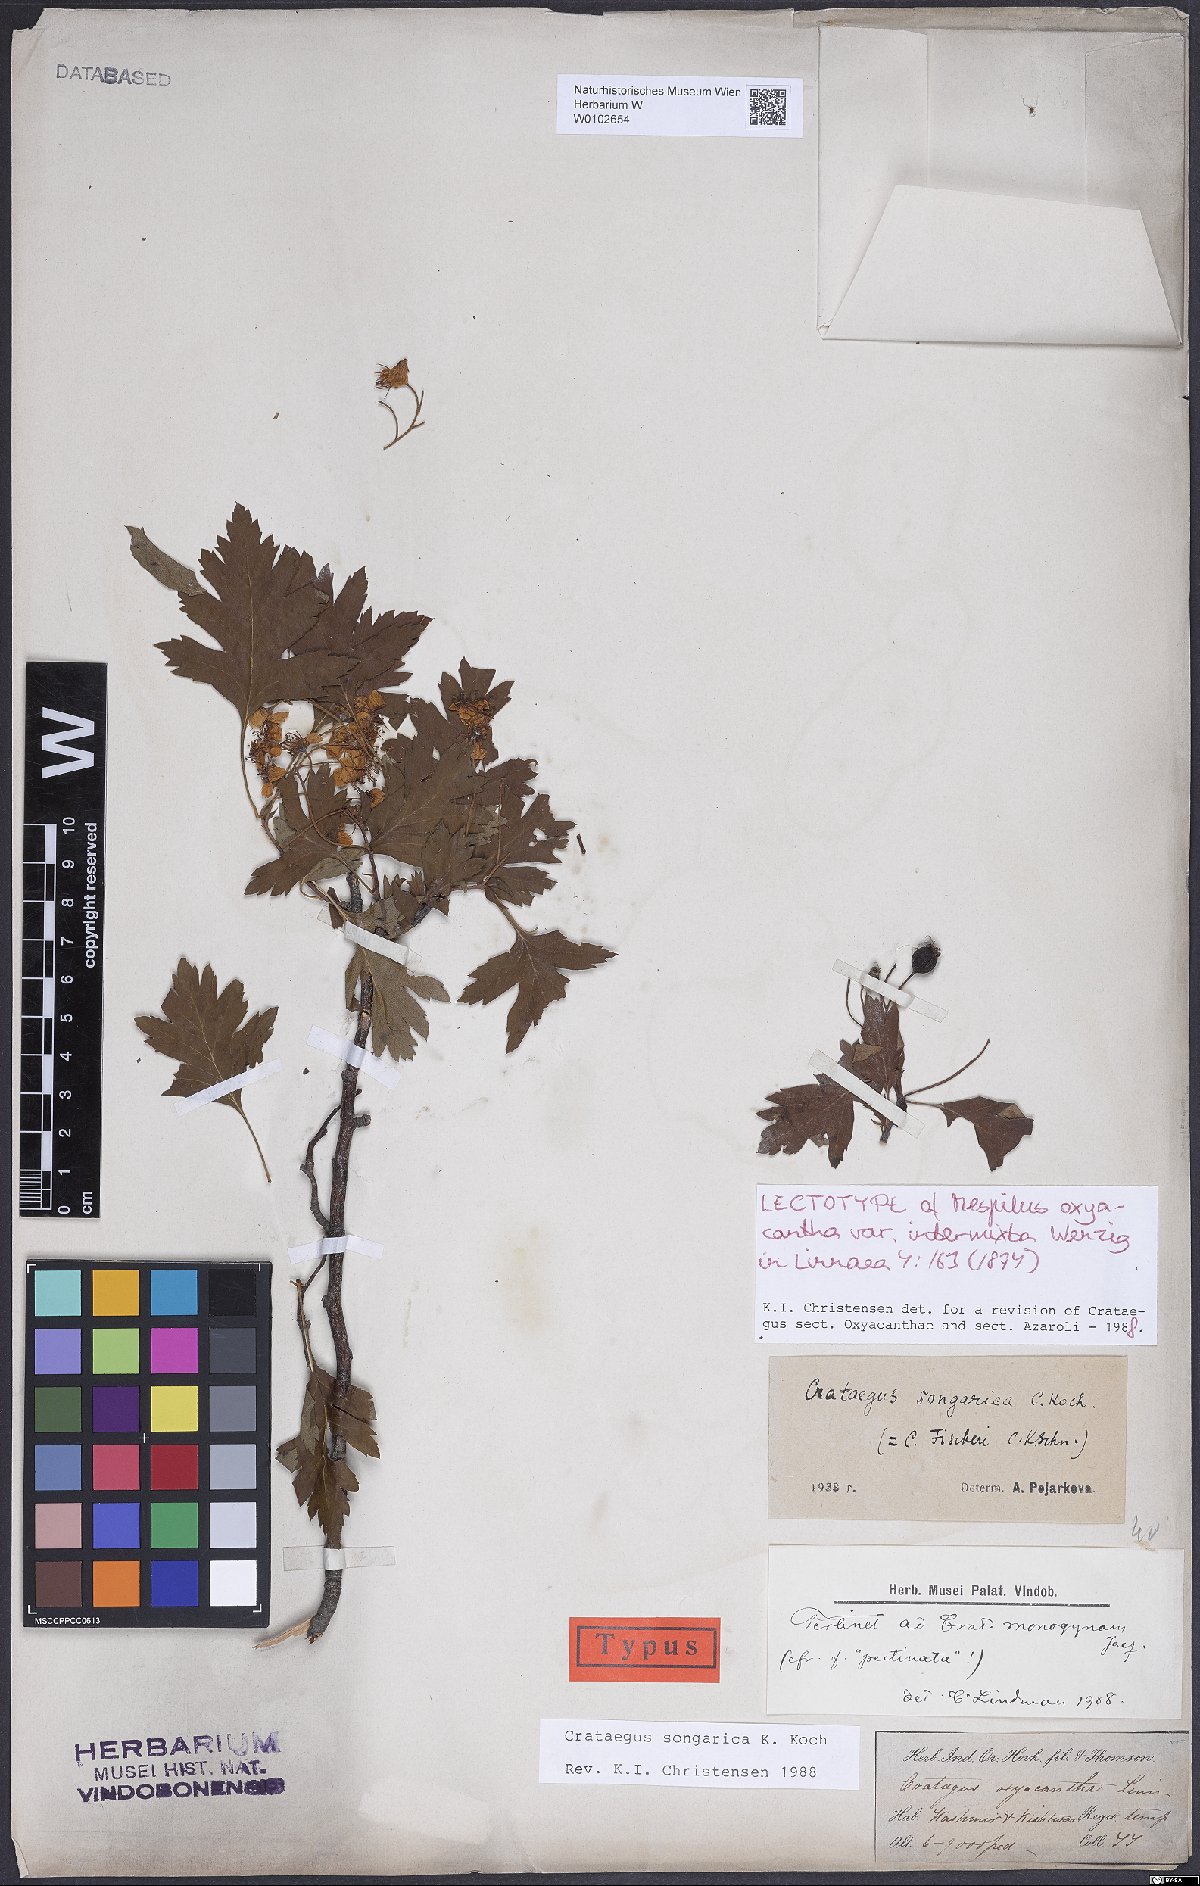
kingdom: Plantae
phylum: Tracheophyta
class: Magnoliopsida
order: Rosales
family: Rosaceae
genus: Crataegus
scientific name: Crataegus media
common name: Intermediate hawthorn
